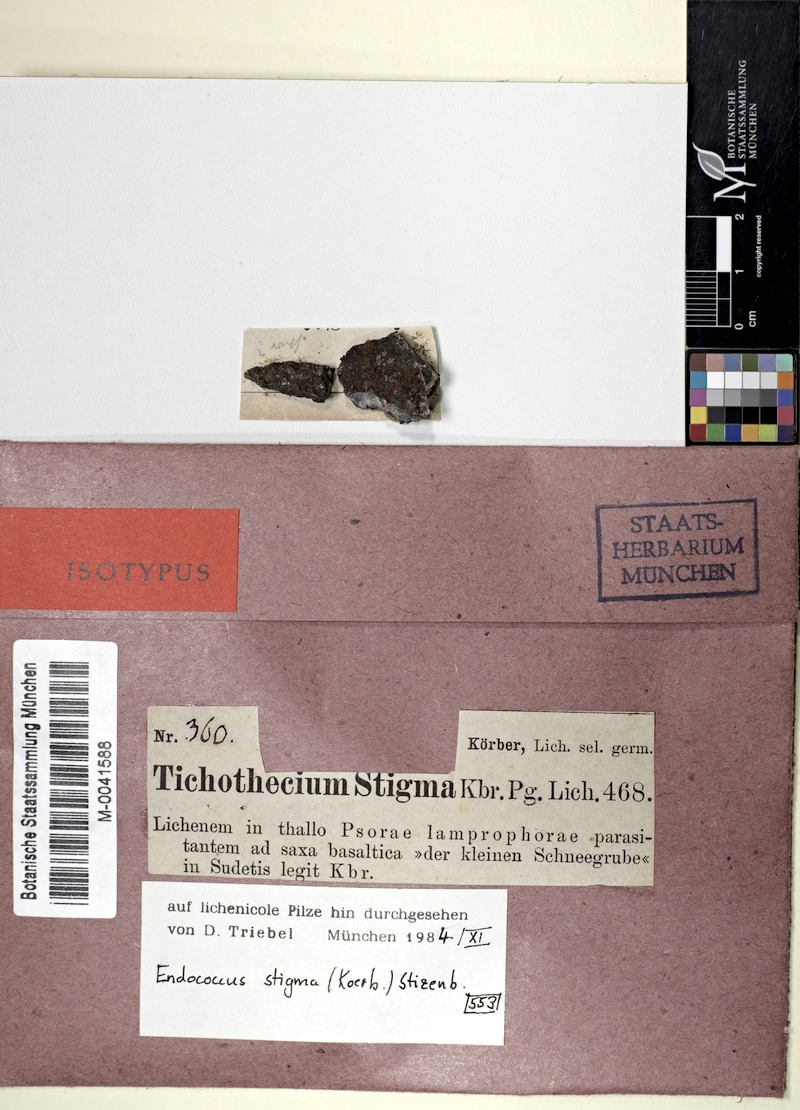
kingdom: Fungi
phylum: Ascomycota
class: Dothideomycetes
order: Dothideales
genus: Endococcus
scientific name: Endococcus macrosporus
